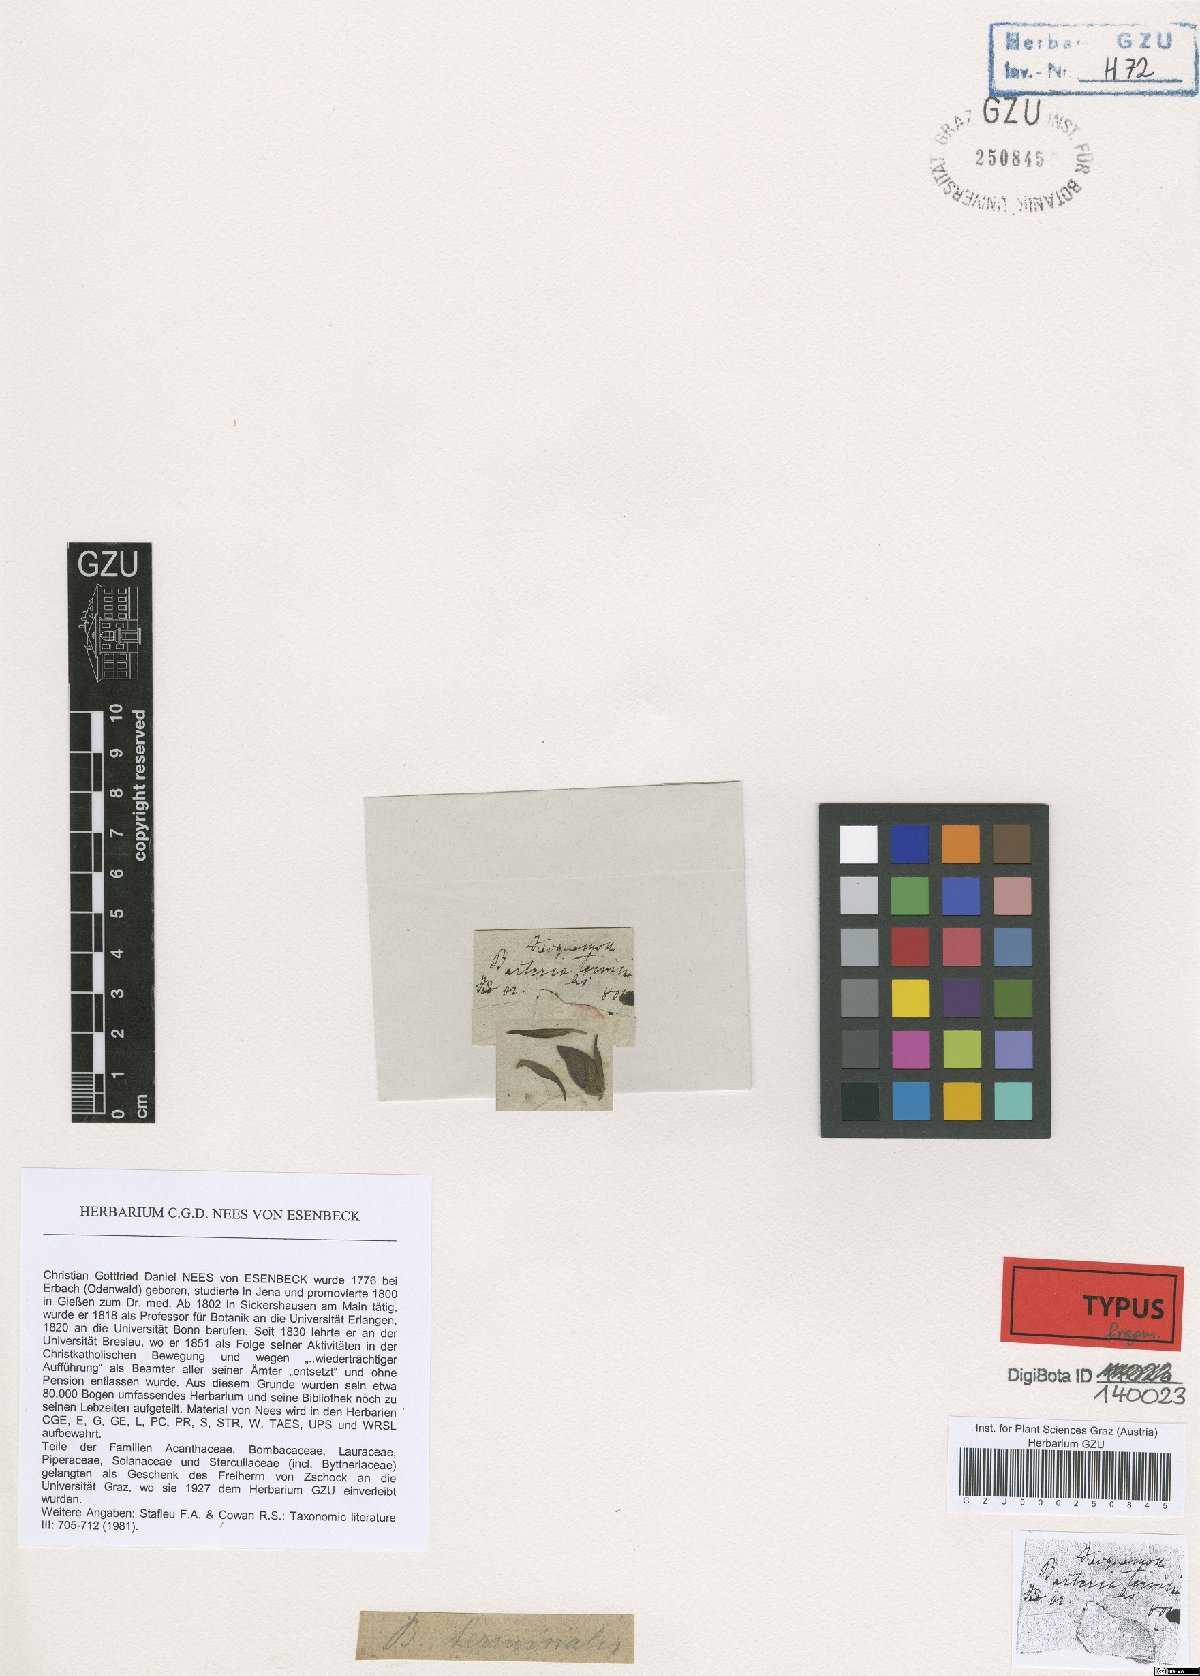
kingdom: Plantae
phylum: Tracheophyta
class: Magnoliopsida
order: Lamiales
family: Acanthaceae
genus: Barleria
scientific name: Barleria terminalis
